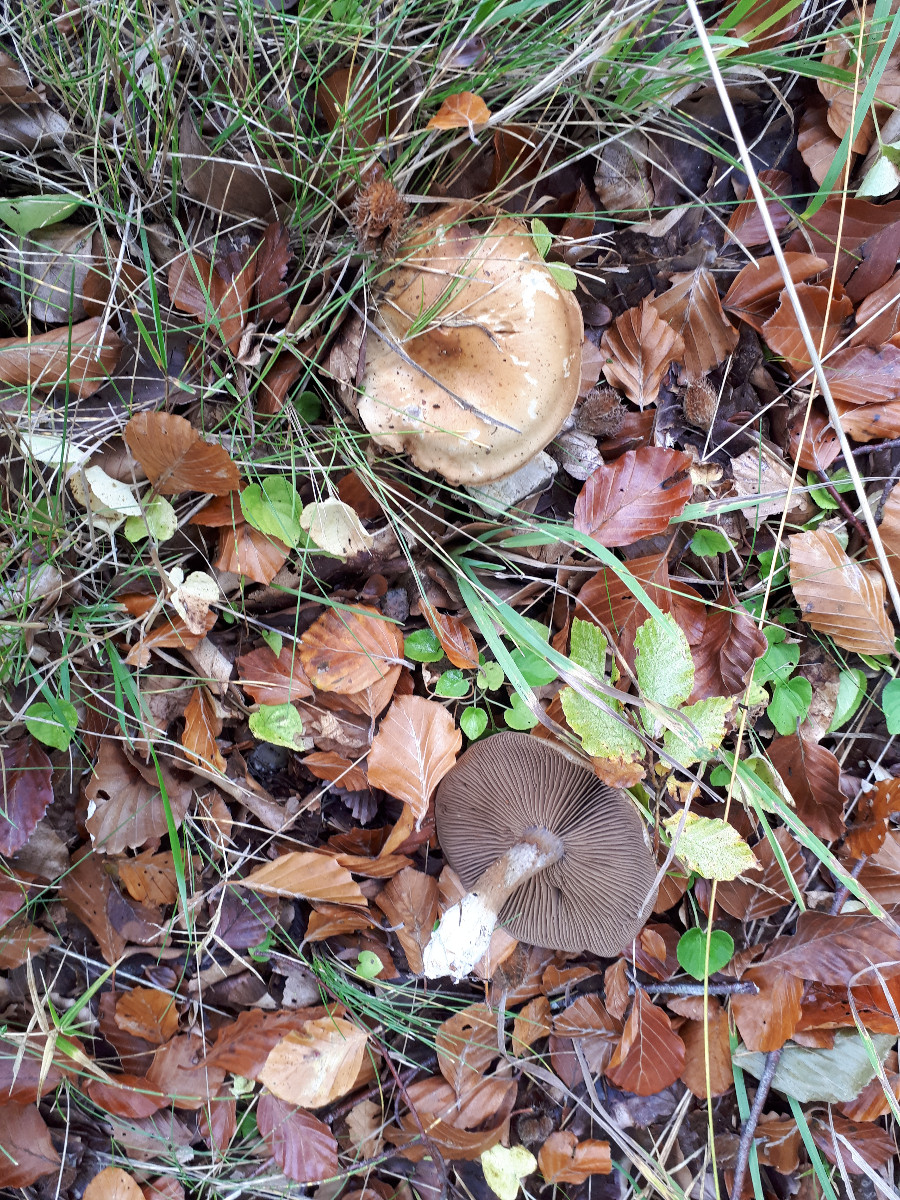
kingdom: Fungi
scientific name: Fungi
